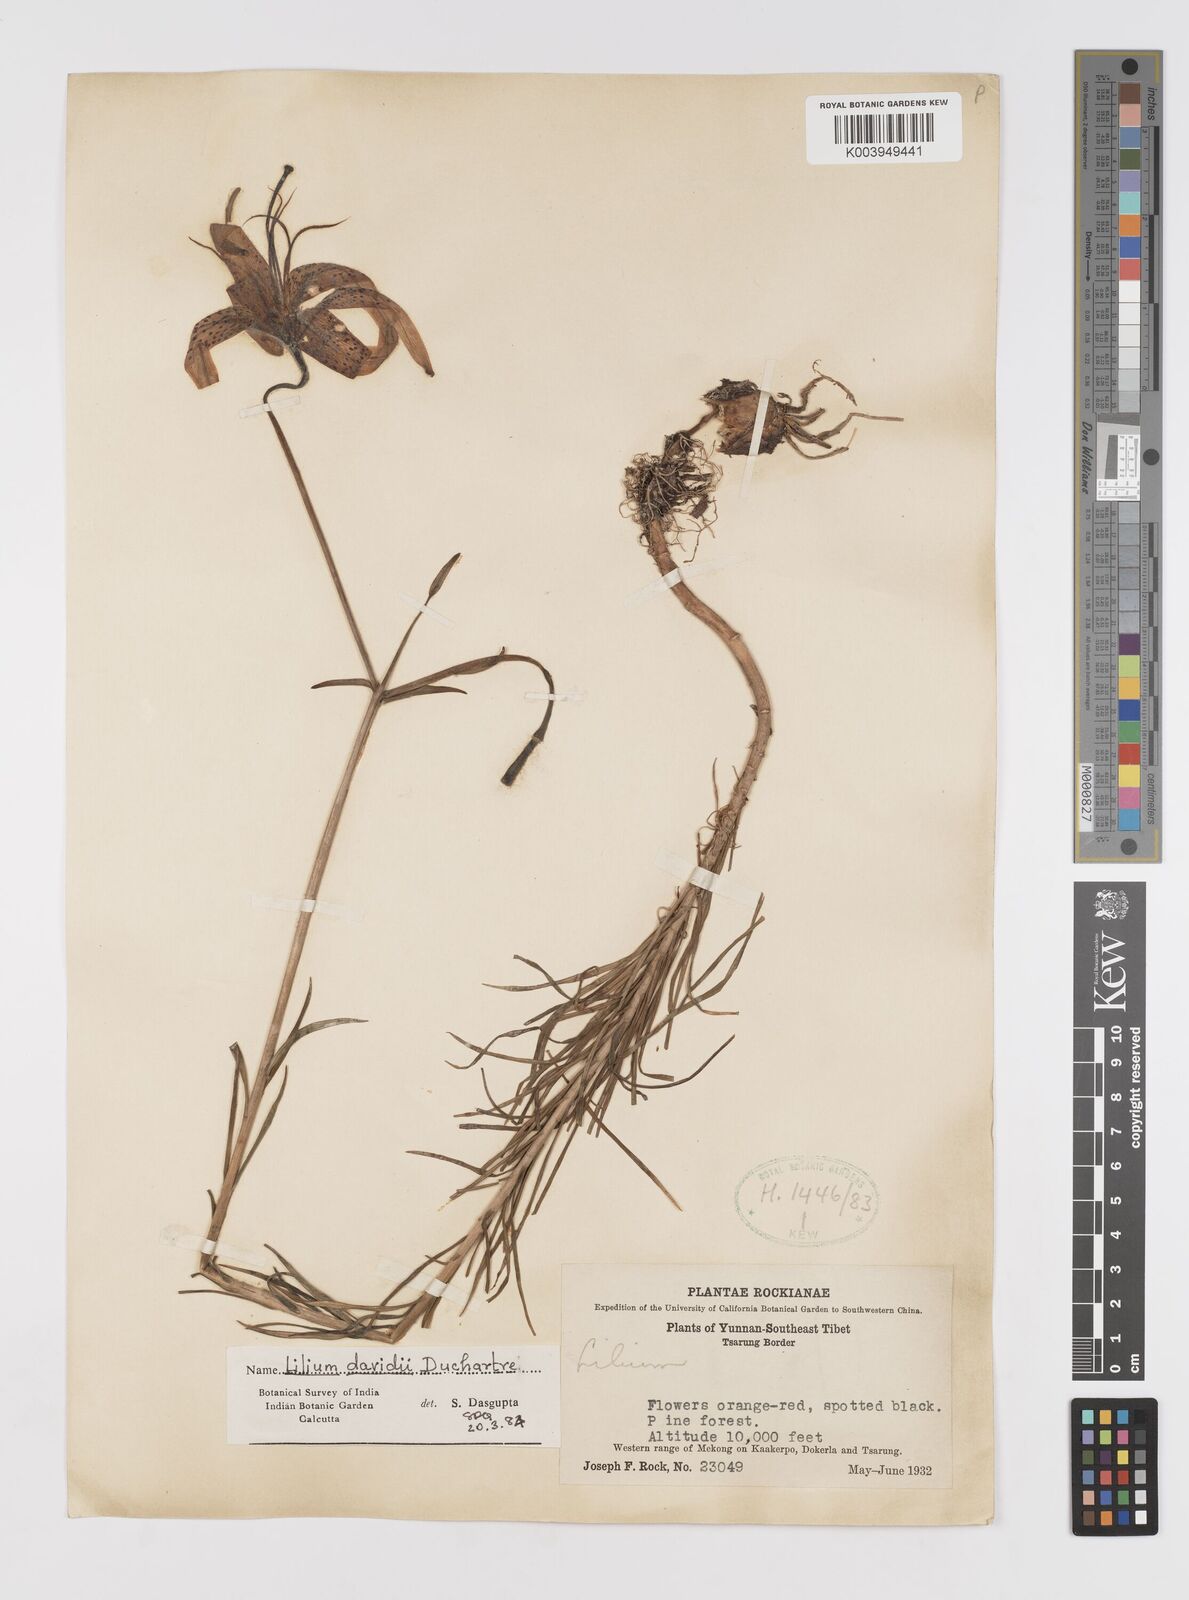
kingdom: Plantae
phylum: Tracheophyta
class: Liliopsida
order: Liliales
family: Liliaceae
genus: Lilium
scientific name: Lilium davidii
